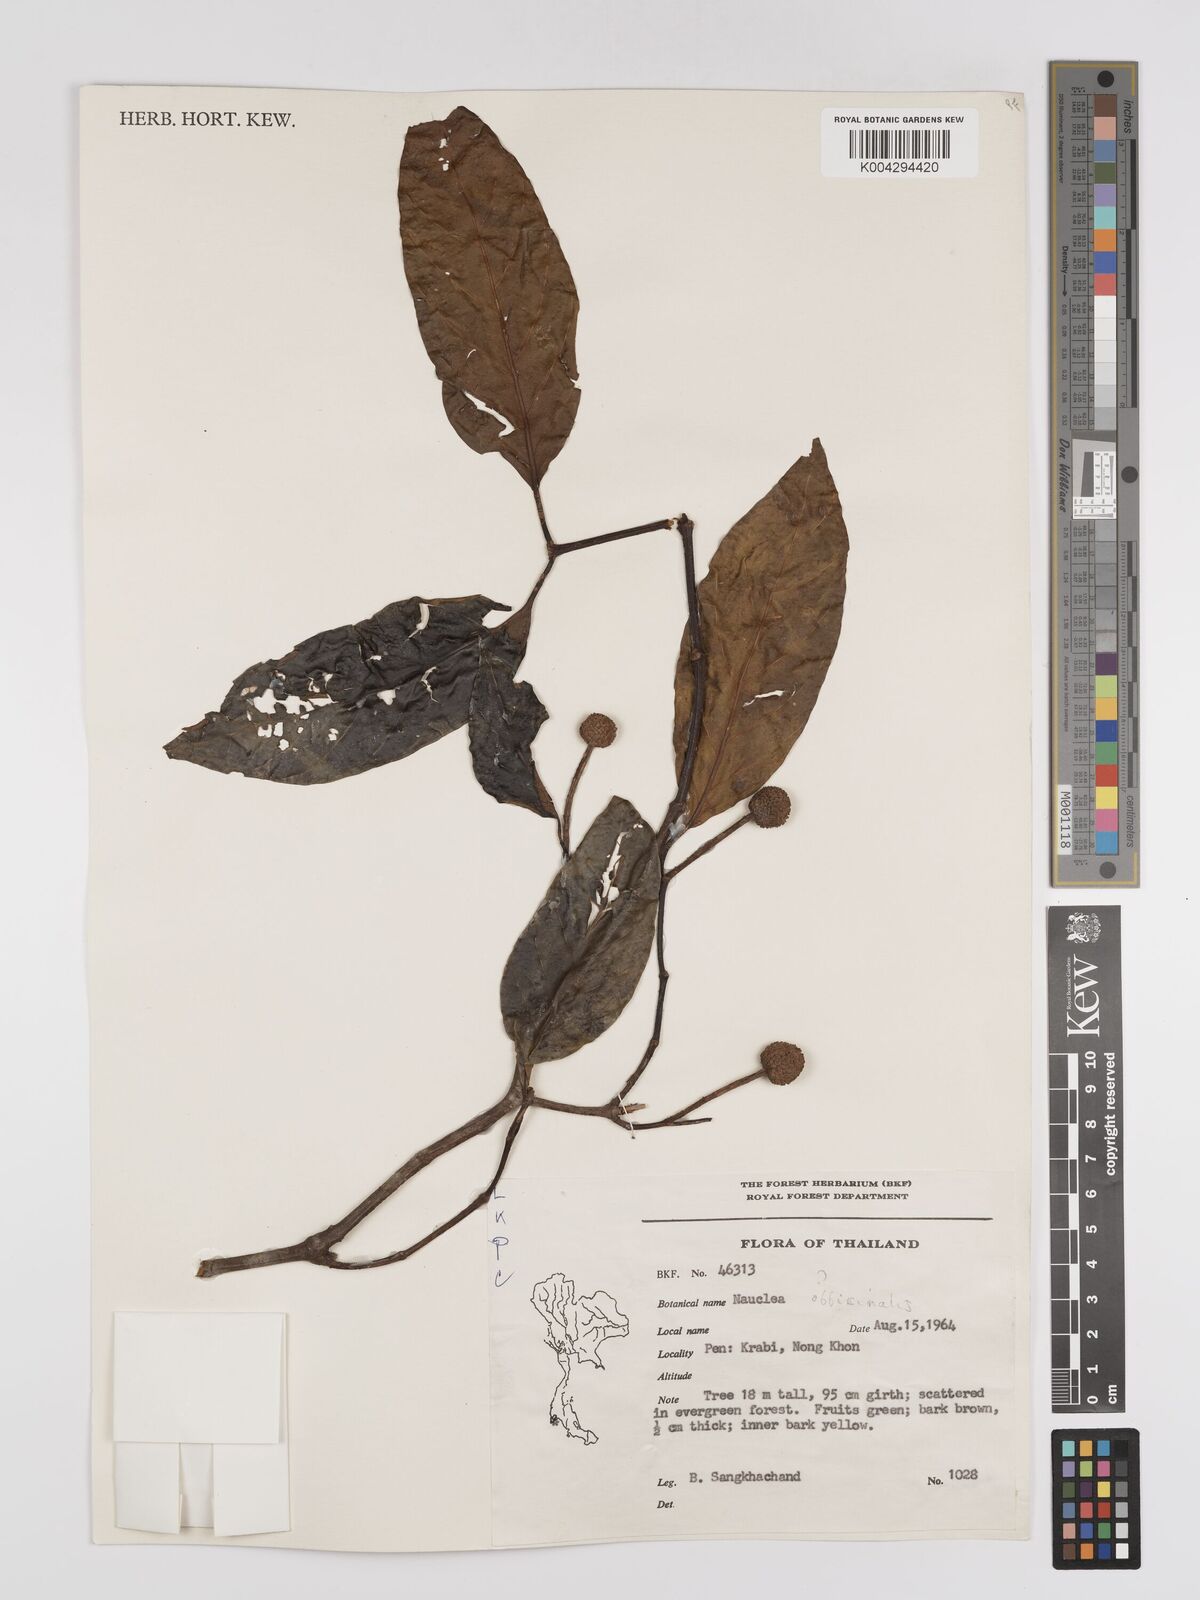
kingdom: Plantae
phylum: Tracheophyta
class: Magnoliopsida
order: Gentianales
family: Rubiaceae
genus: Nauclea
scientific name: Nauclea officinalis
